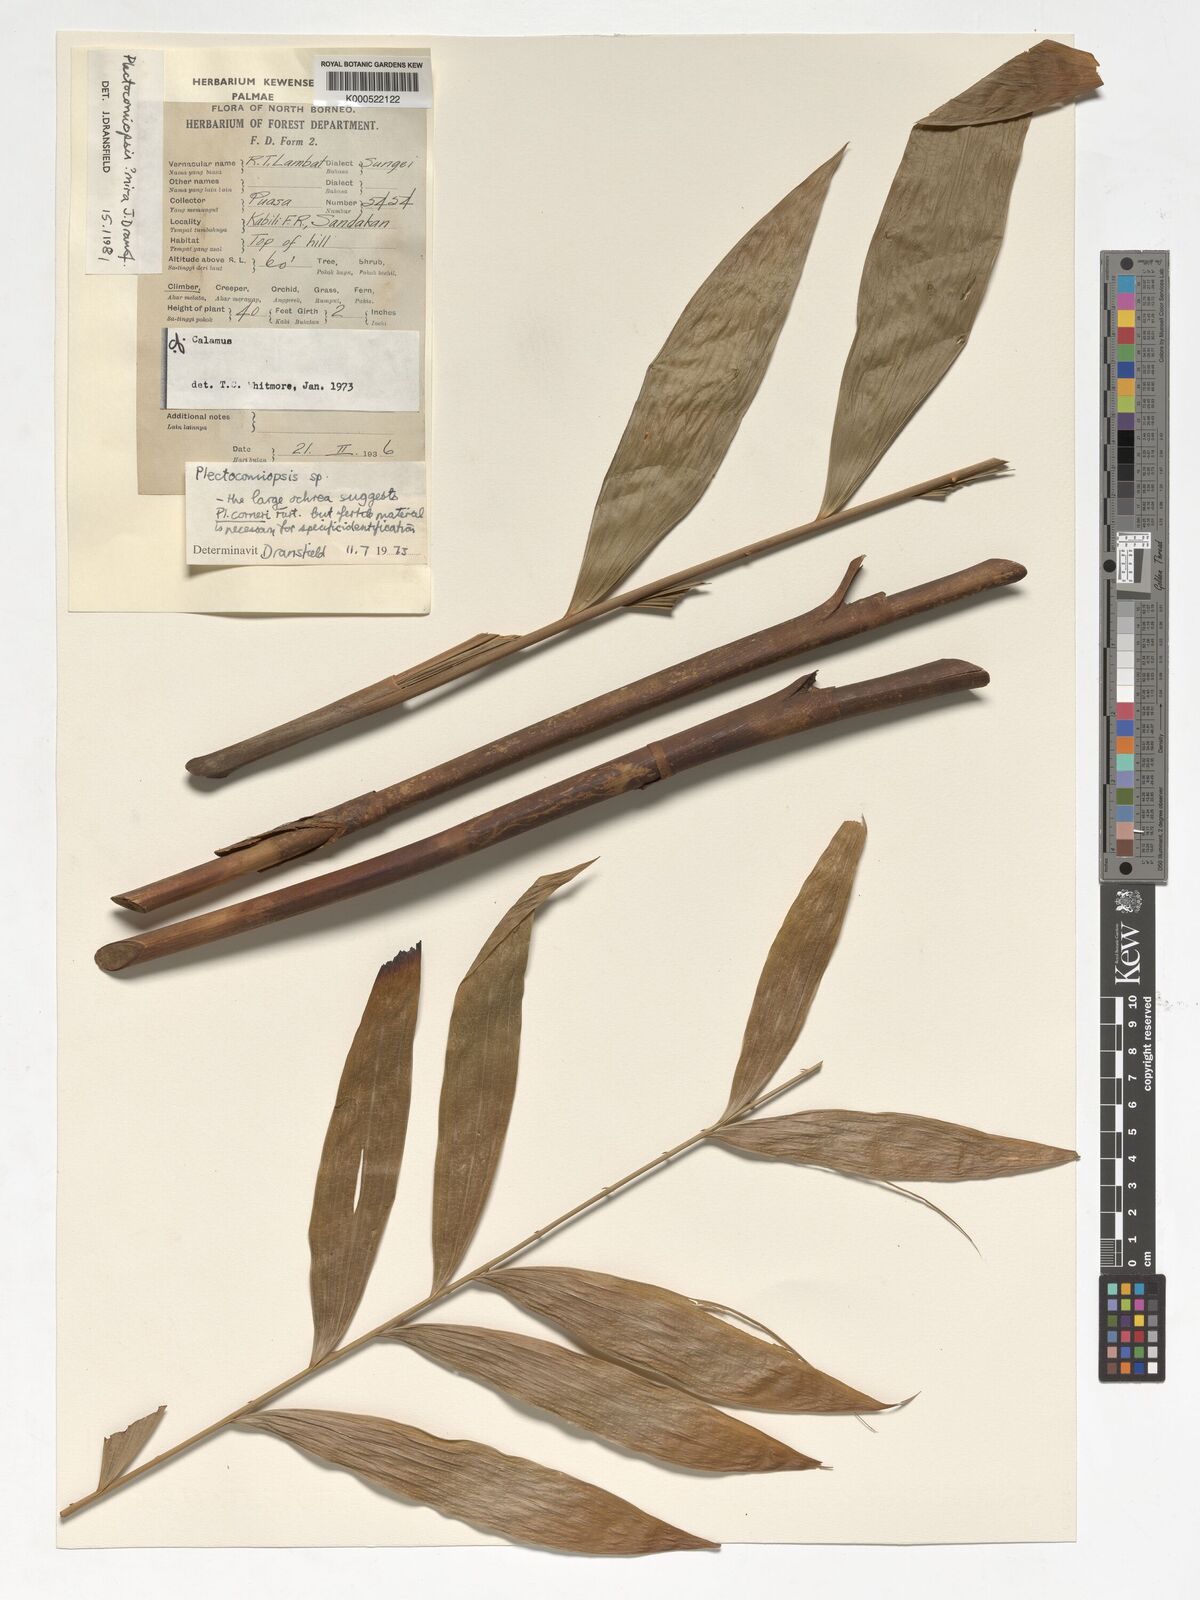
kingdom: Plantae
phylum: Tracheophyta
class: Liliopsida
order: Arecales
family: Arecaceae
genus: Plectocomiopsis
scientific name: Plectocomiopsis mira
